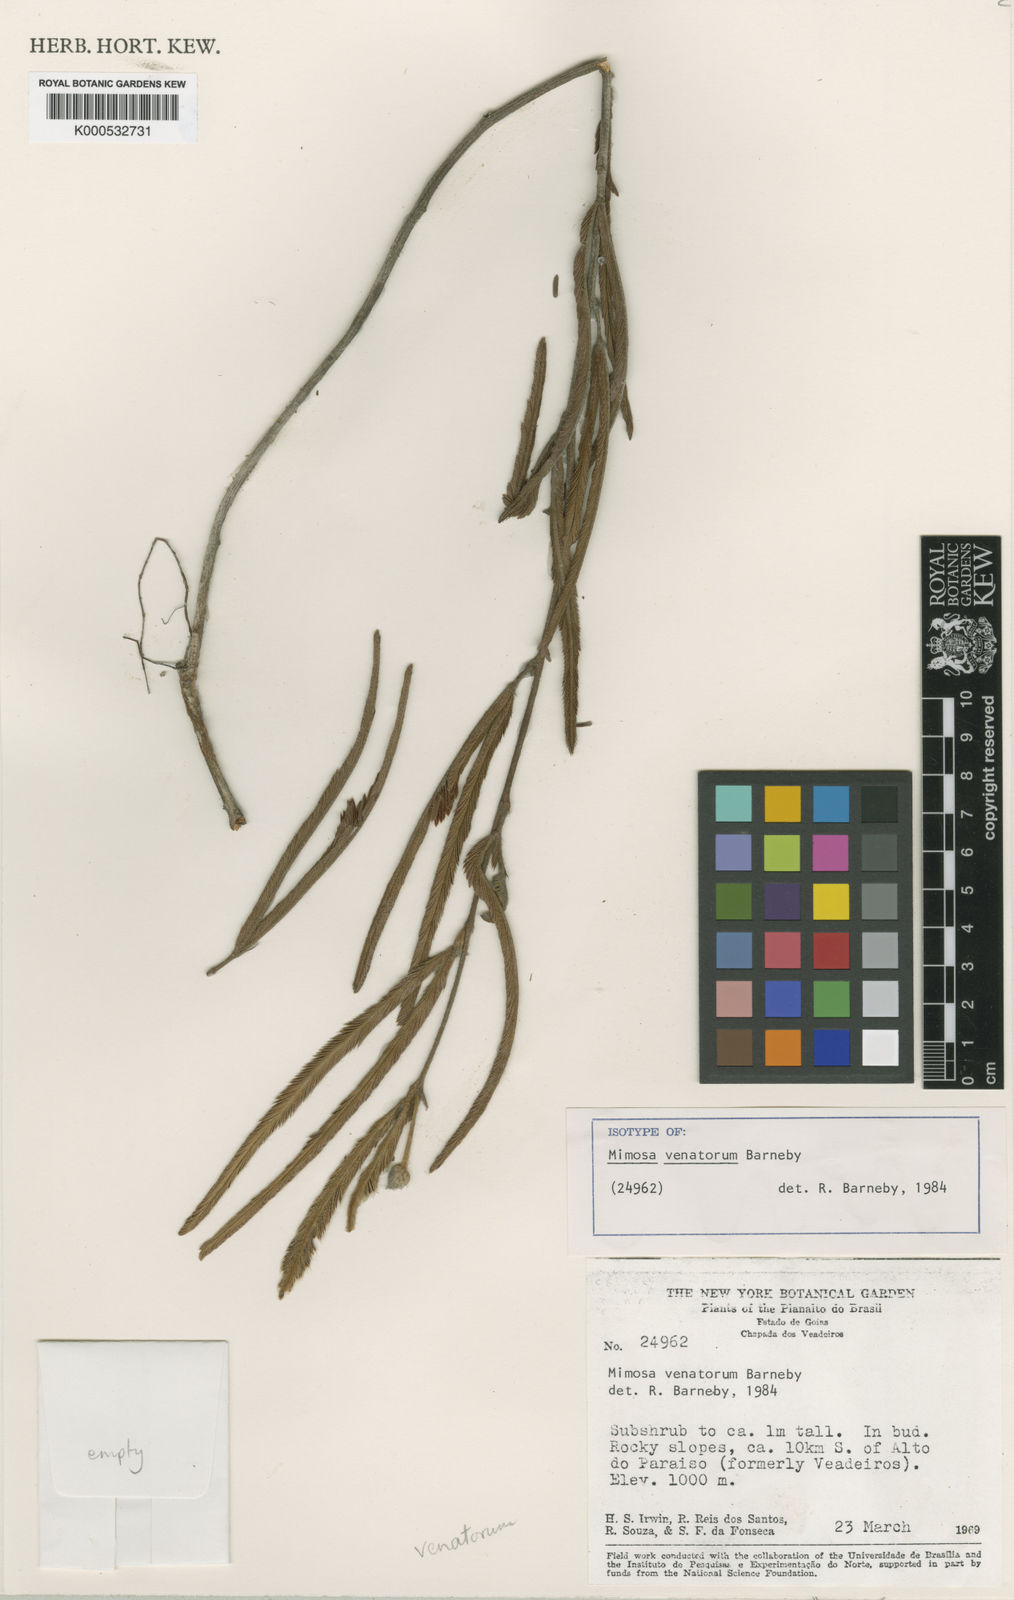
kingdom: Plantae
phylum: Tracheophyta
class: Magnoliopsida
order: Fabales
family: Fabaceae
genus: Mimosa
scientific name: Mimosa venatorum
